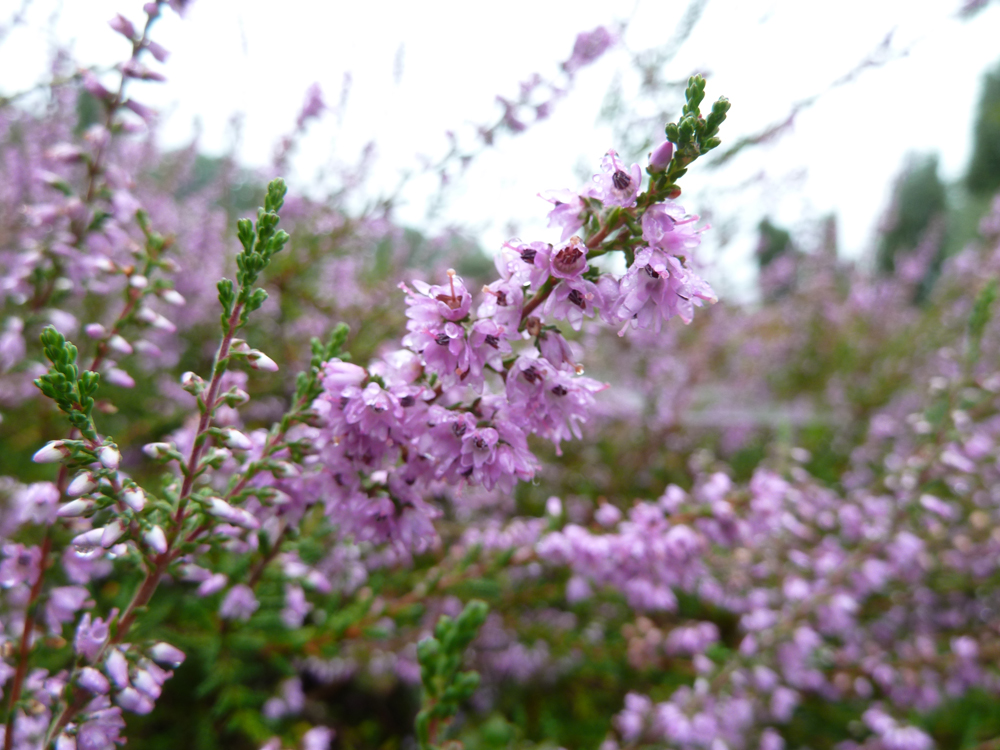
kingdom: Plantae
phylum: Tracheophyta
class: Magnoliopsida
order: Ericales
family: Ericaceae
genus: Calluna
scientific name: Calluna vulgaris
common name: Heather
